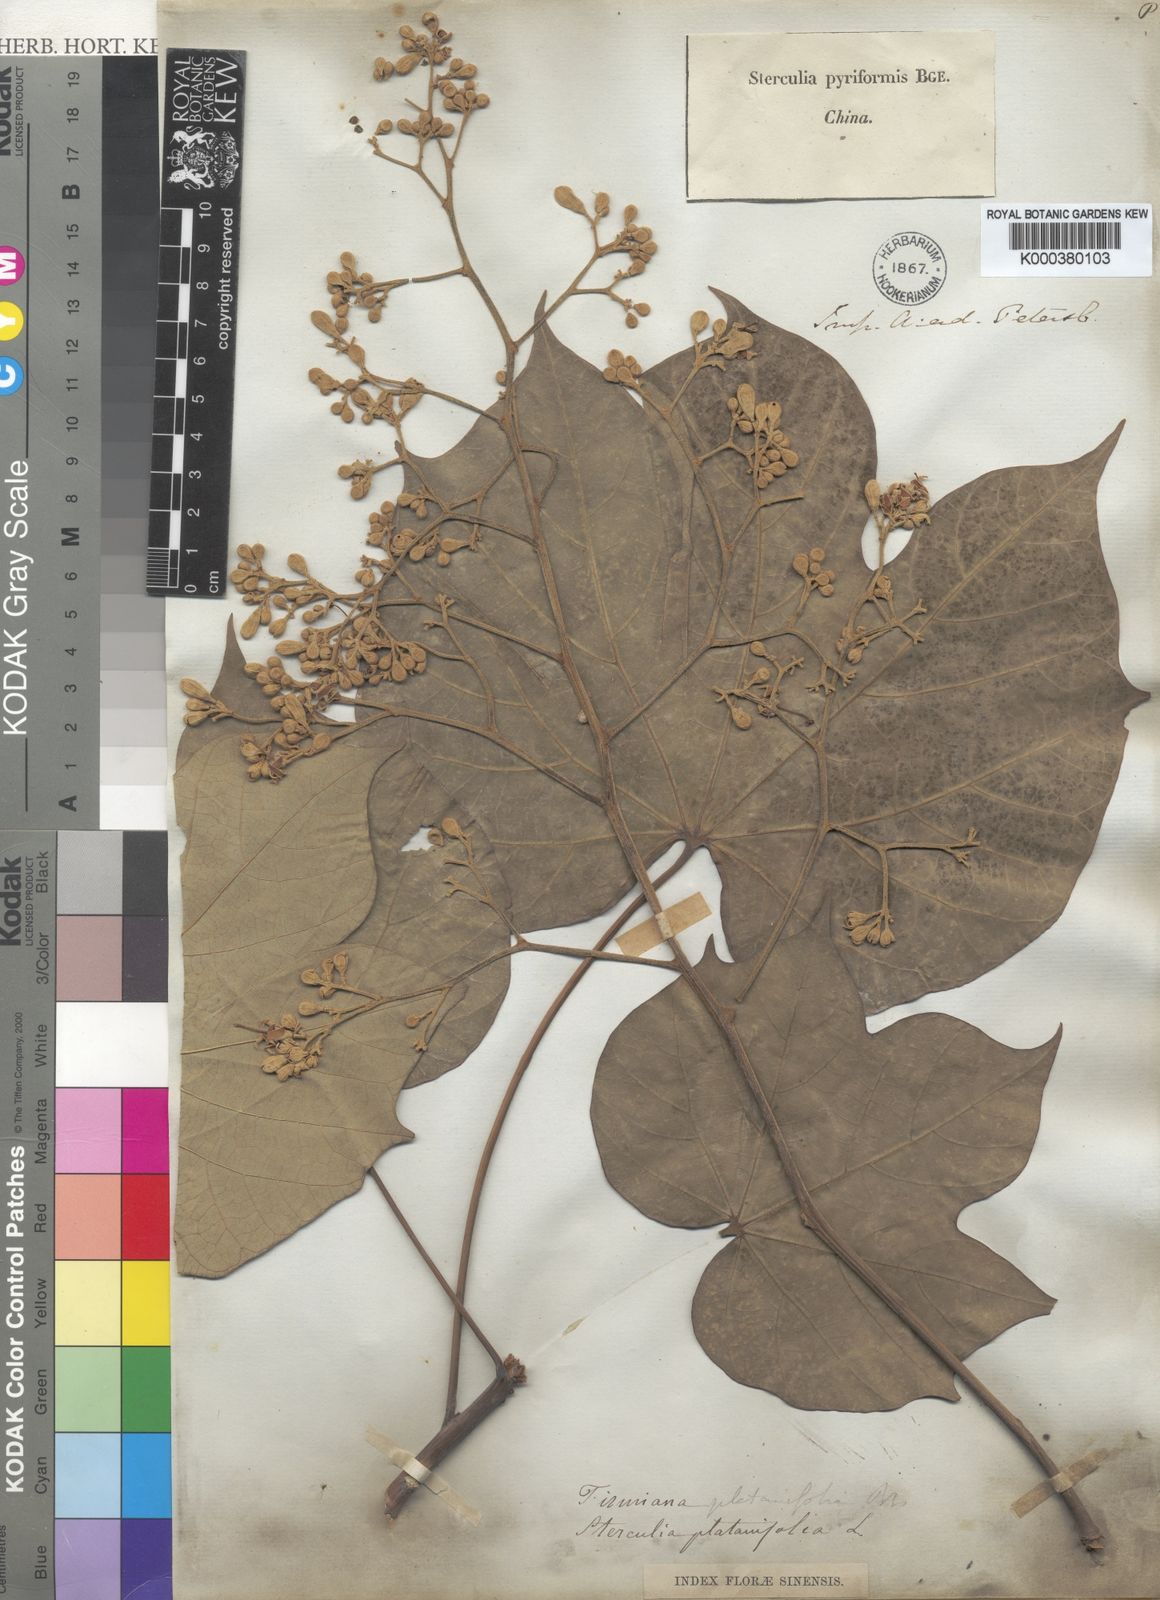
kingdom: Plantae
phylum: Tracheophyta
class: Magnoliopsida
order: Malvales
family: Malvaceae
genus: Firmiana
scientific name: Firmiana simplex
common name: Chinese parasoltree
